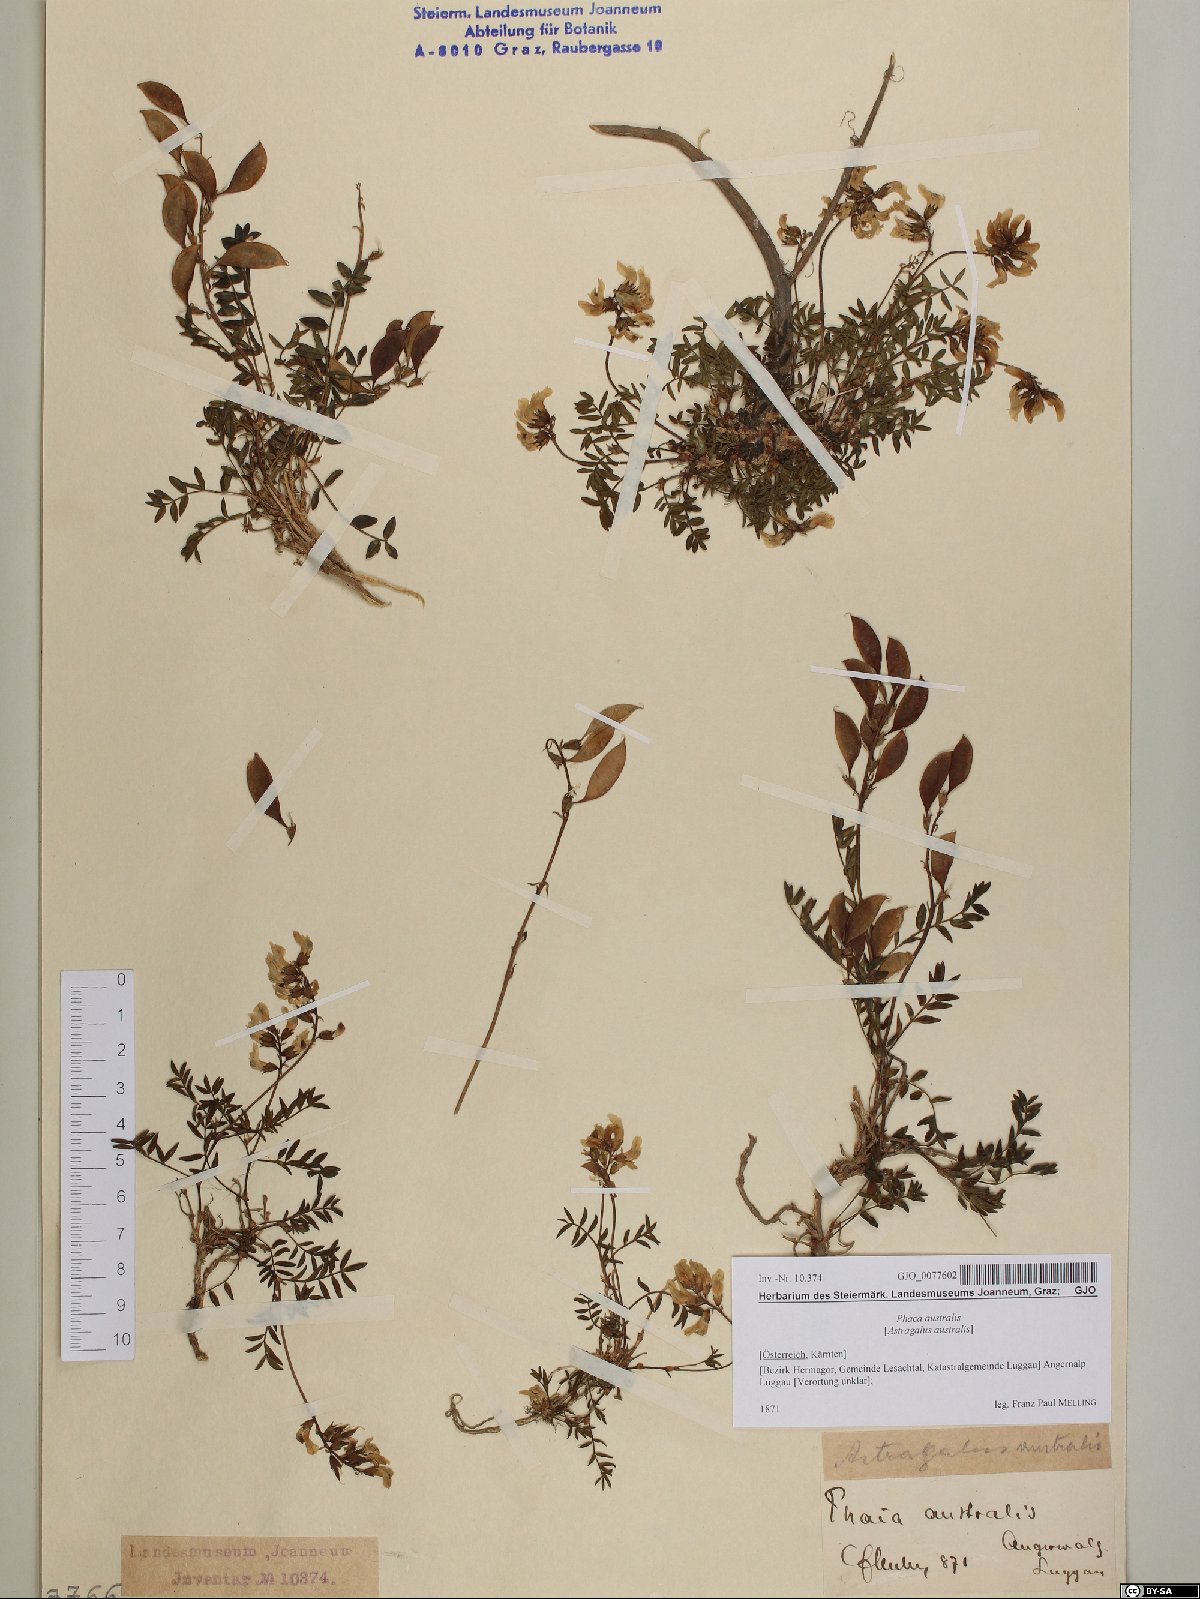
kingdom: Plantae
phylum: Tracheophyta
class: Magnoliopsida
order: Fabales
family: Fabaceae
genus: Astragalus
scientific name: Astragalus australis
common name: Indian milk-vetch
